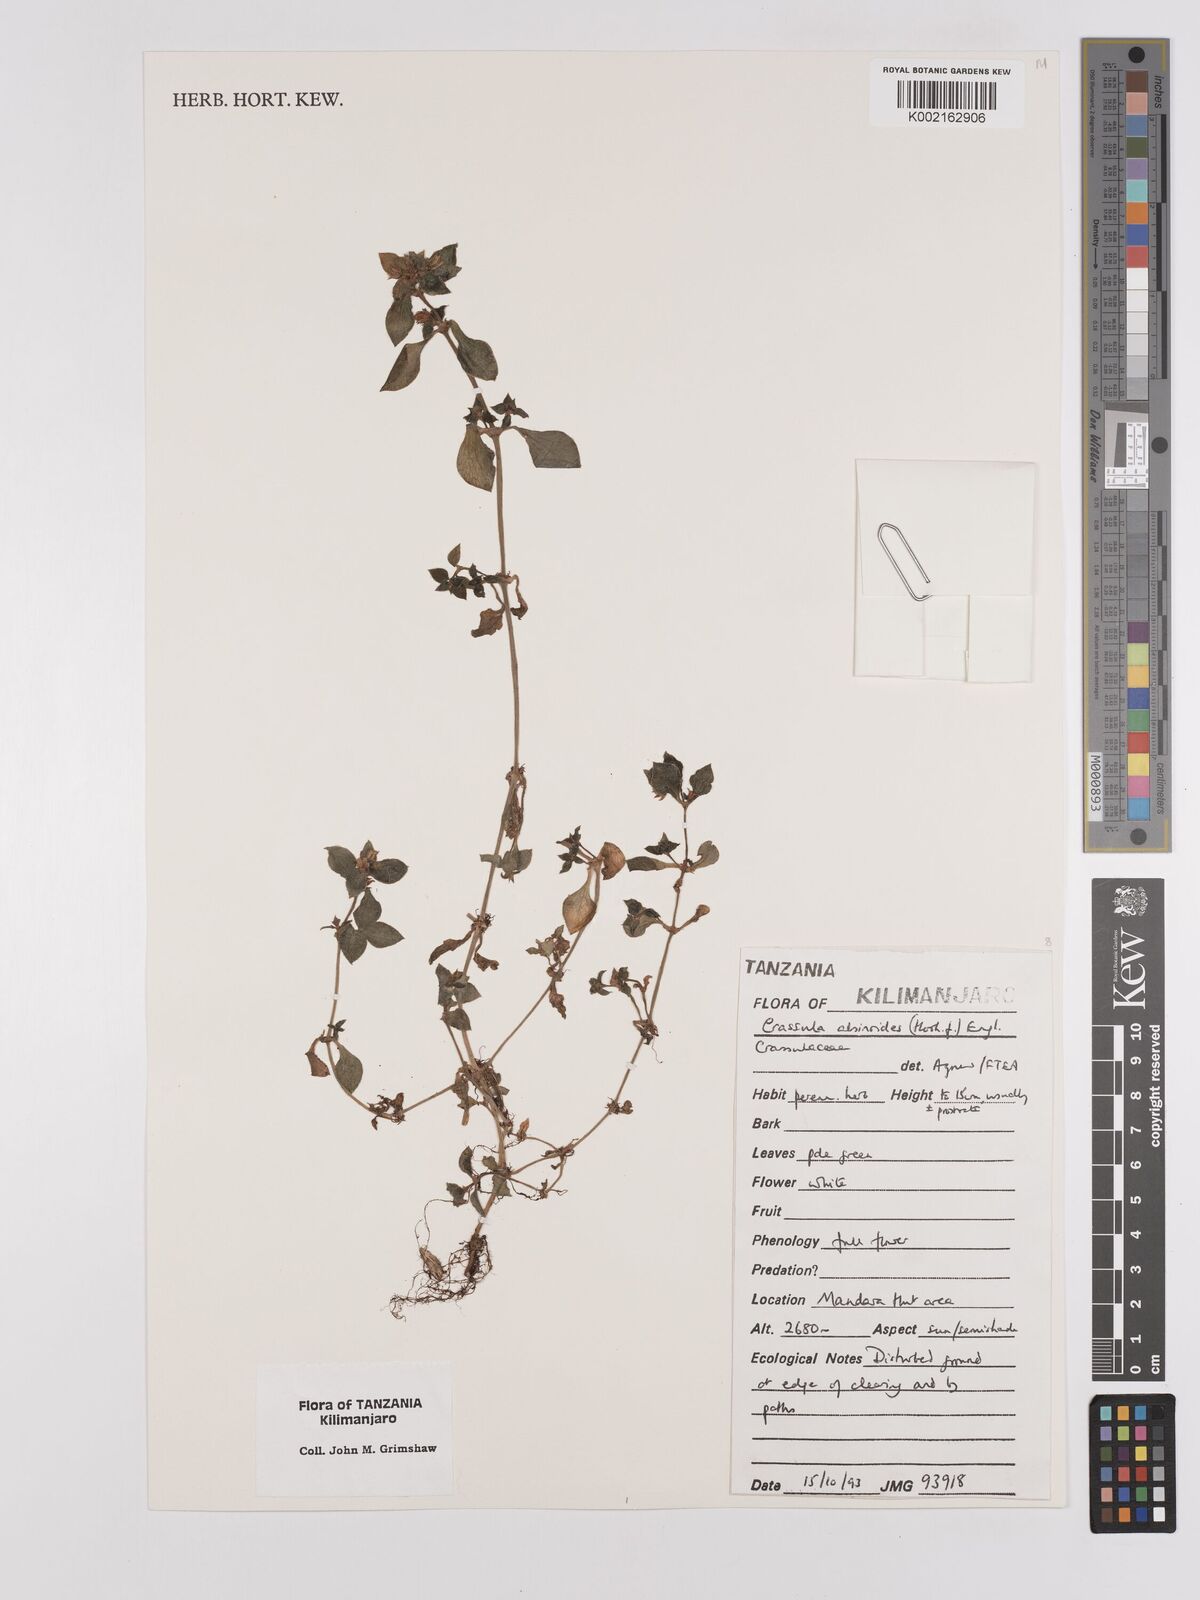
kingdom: Plantae
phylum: Tracheophyta
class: Magnoliopsida
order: Saxifragales
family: Crassulaceae
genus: Crassula
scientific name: Crassula alsinoides
